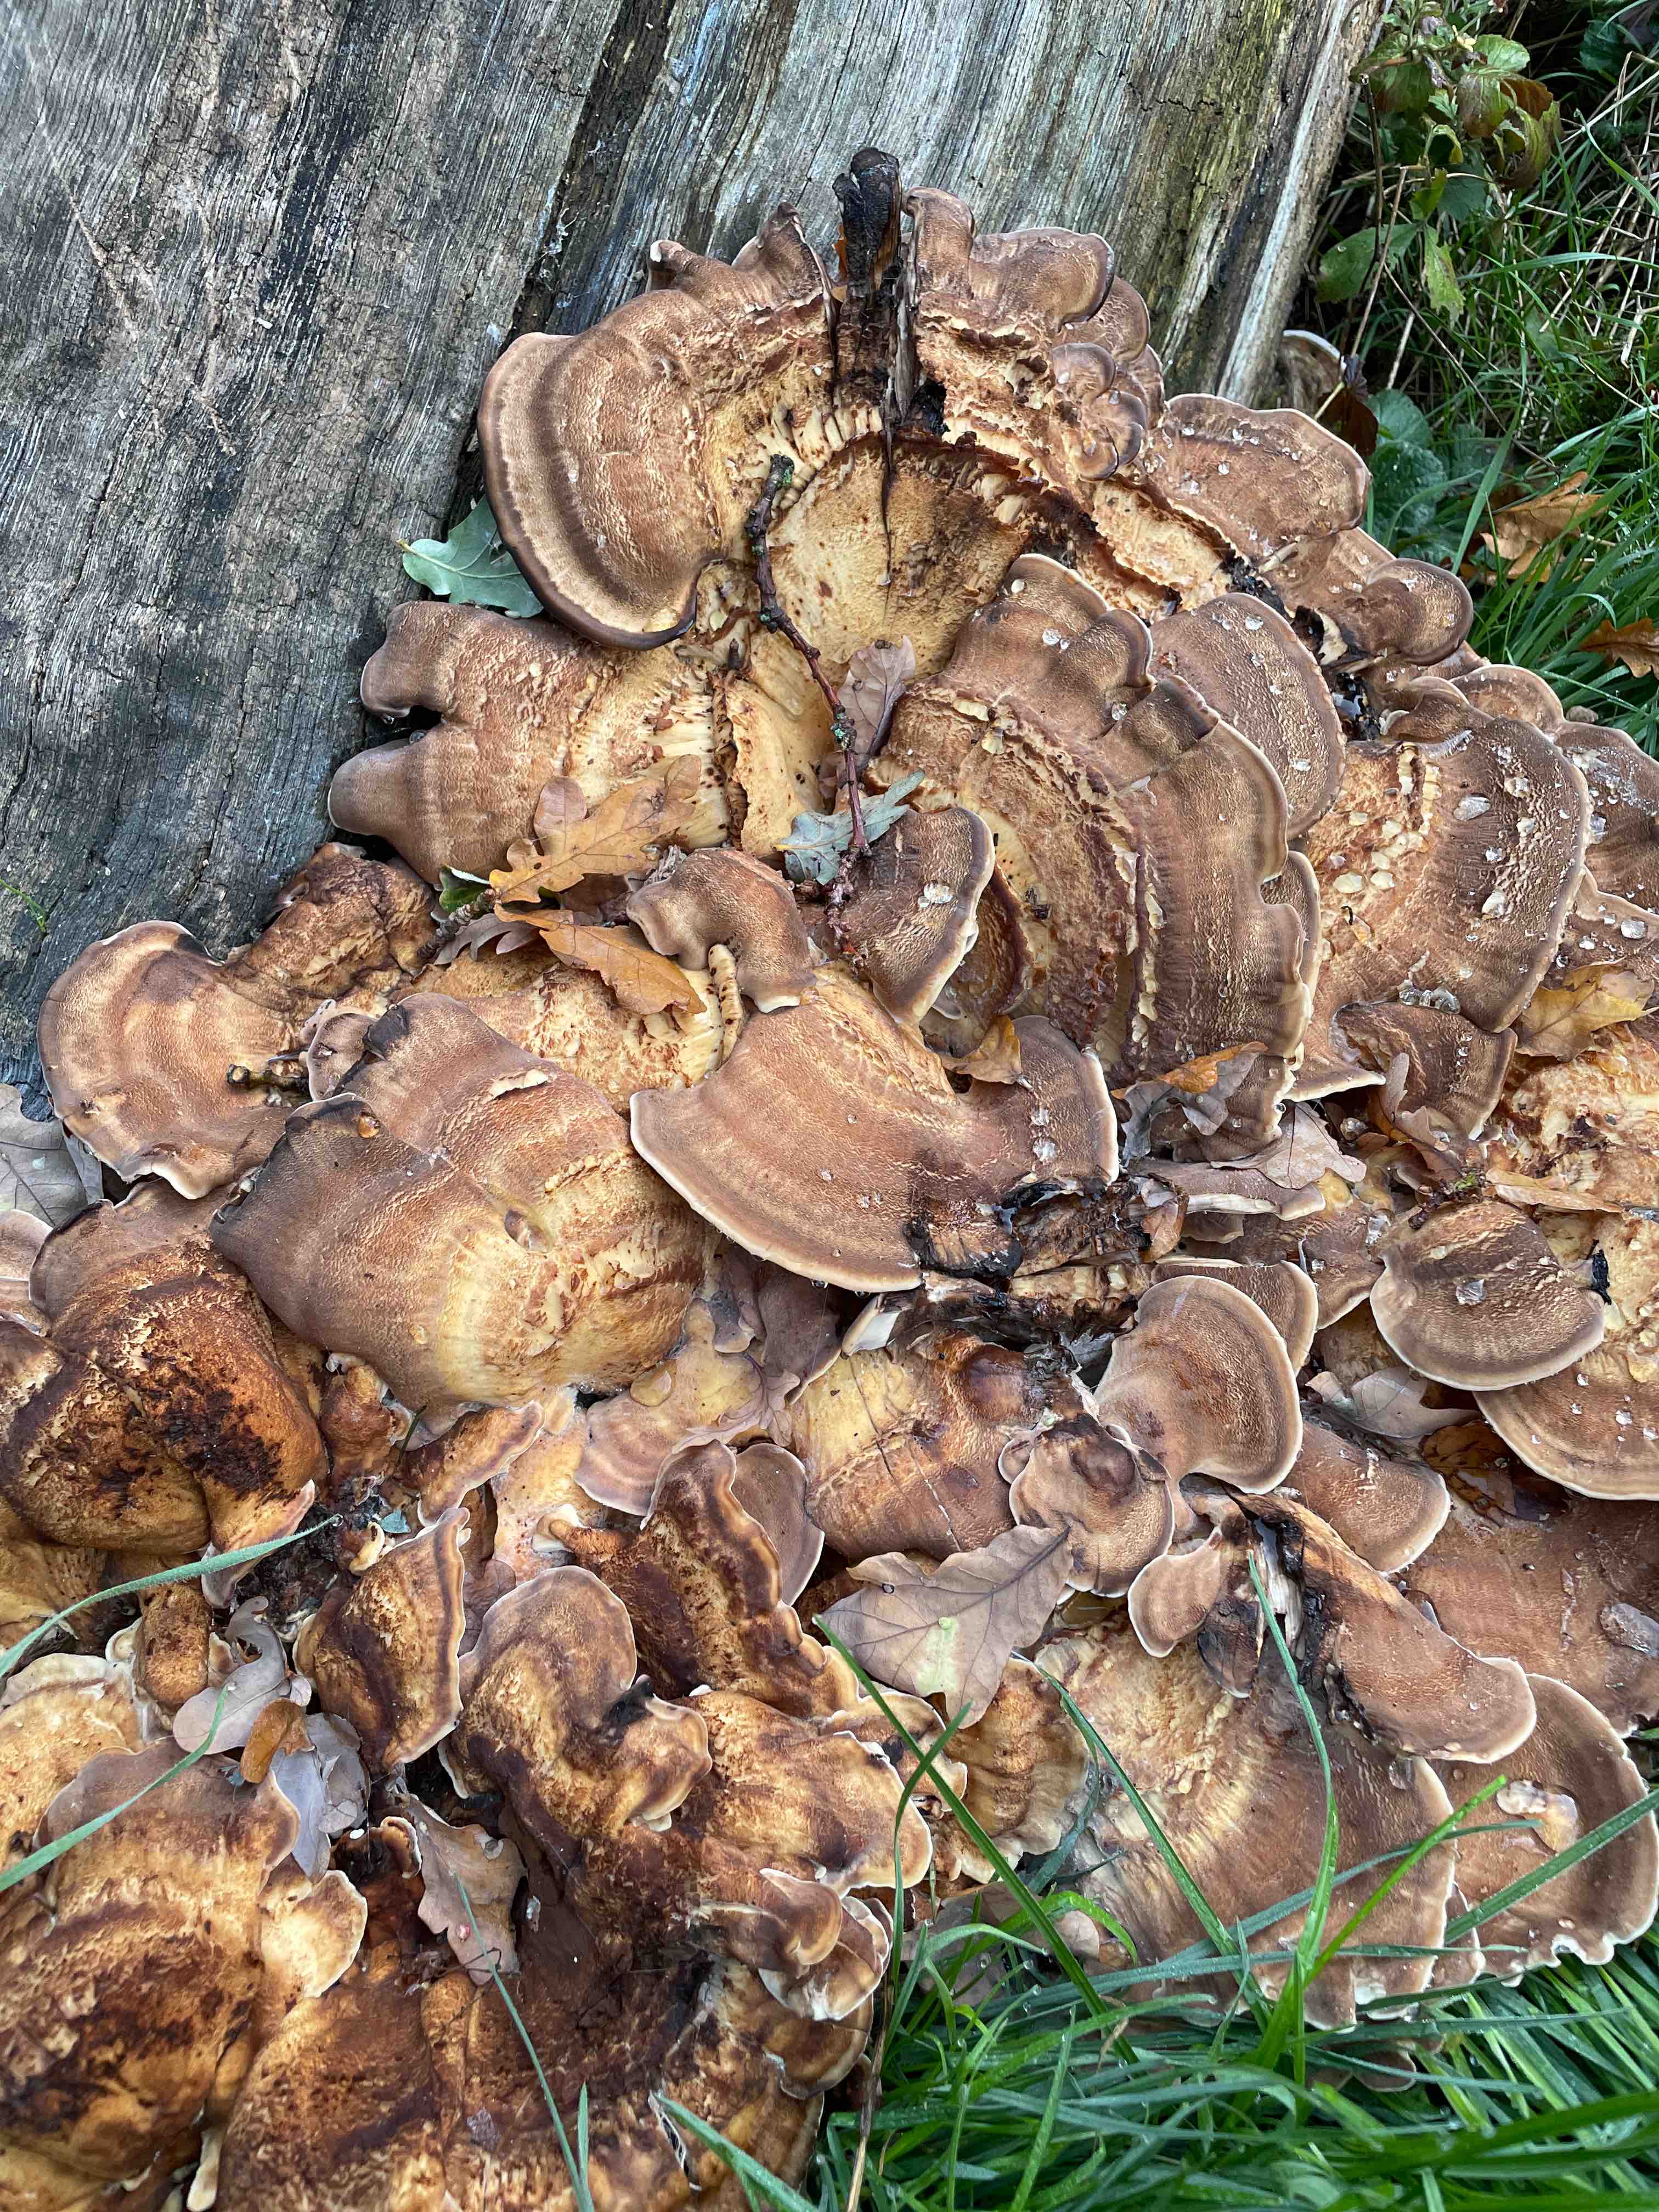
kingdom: Fungi
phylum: Basidiomycota
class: Agaricomycetes
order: Polyporales
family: Meripilaceae
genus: Meripilus
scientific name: Meripilus giganteus
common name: kæmpeporesvamp
